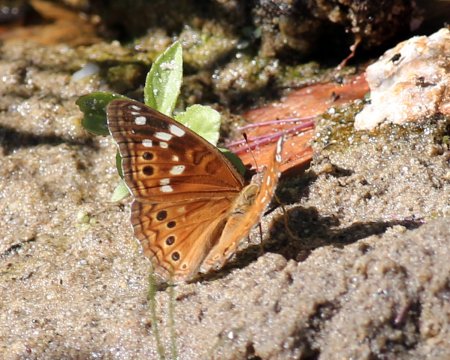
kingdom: Animalia
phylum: Arthropoda
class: Insecta
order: Lepidoptera
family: Nymphalidae
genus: Asterocampa
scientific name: Asterocampa leilia
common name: Empress Leilia
